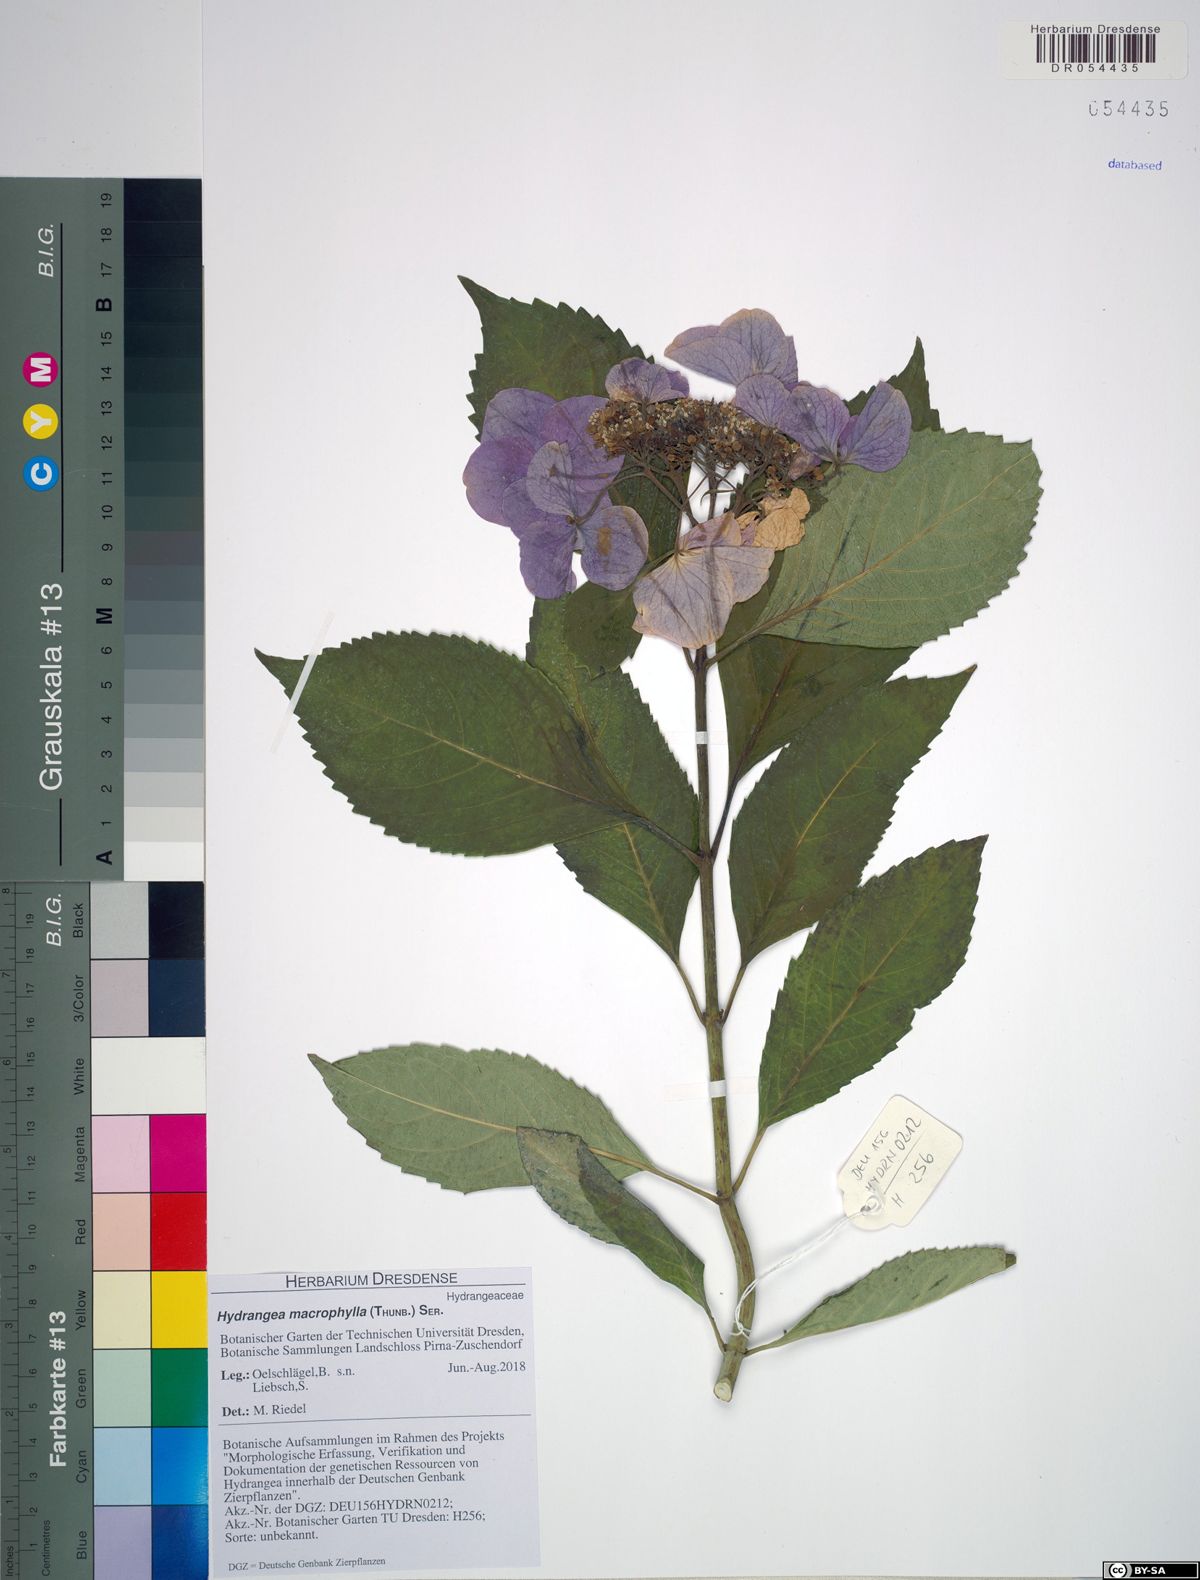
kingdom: Plantae
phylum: Tracheophyta
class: Magnoliopsida
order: Cornales
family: Hydrangeaceae
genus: Hydrangea
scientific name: Hydrangea macrophylla
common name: Hydrangea
